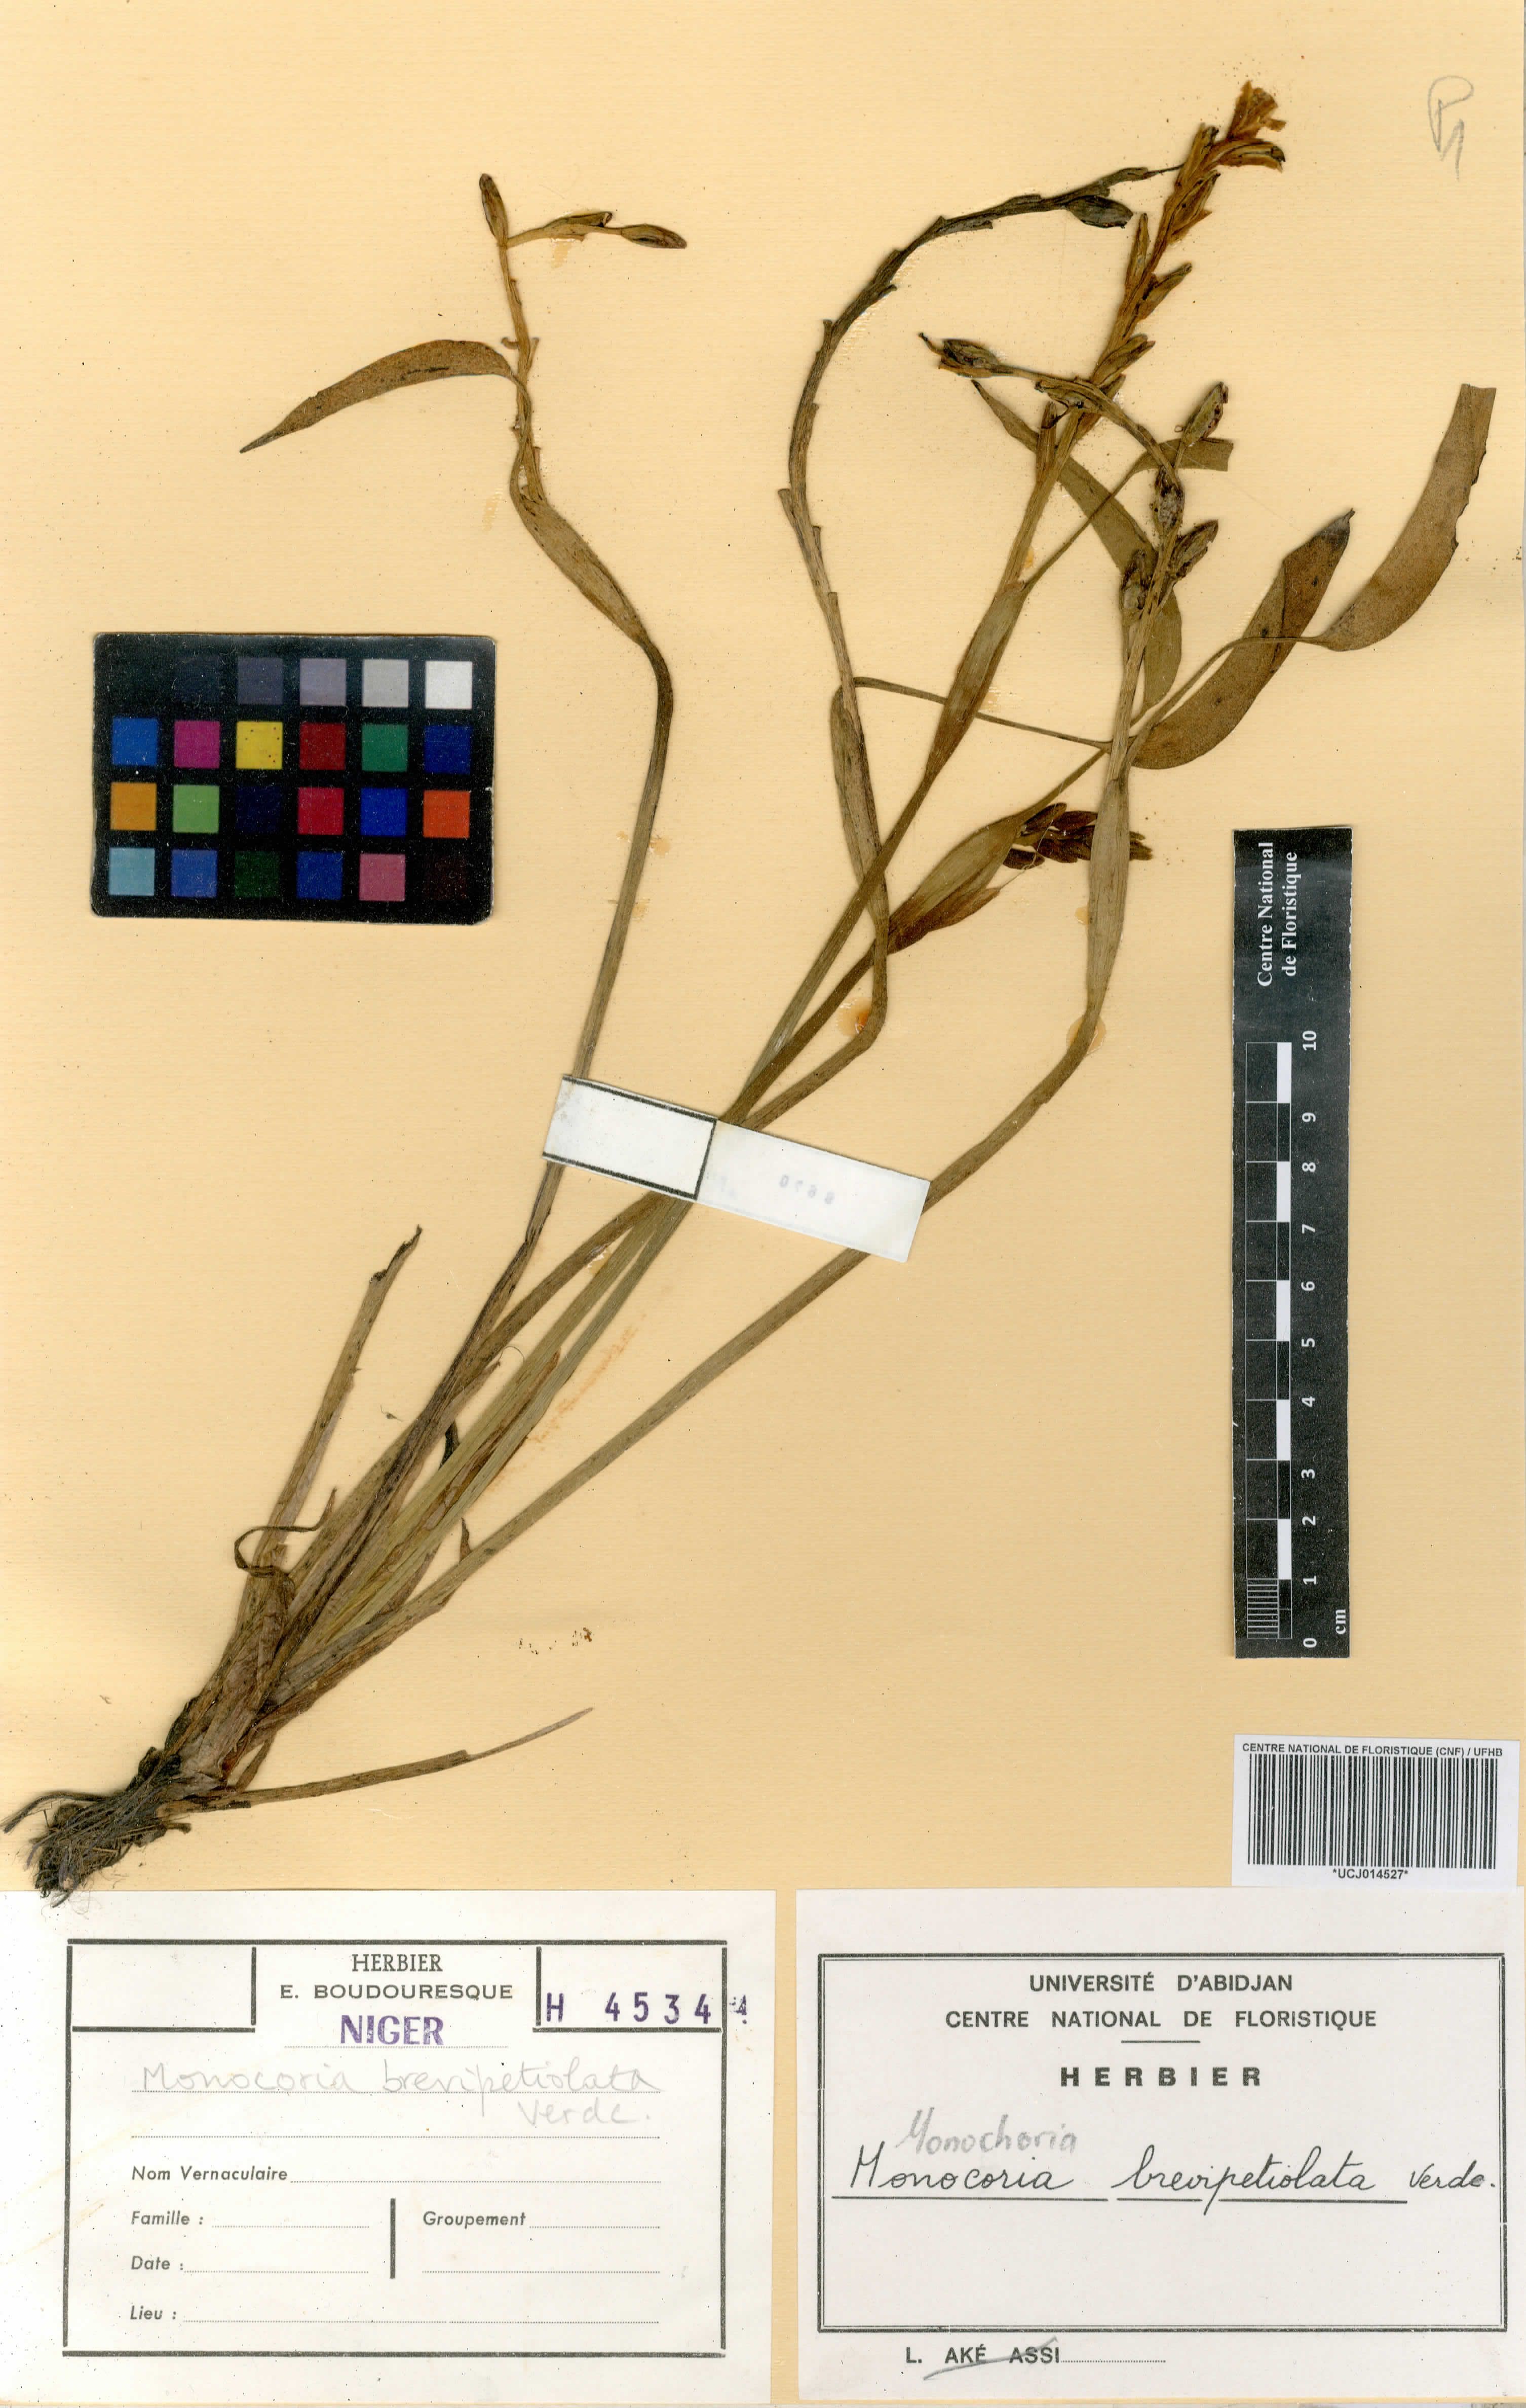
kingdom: Plantae
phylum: Tracheophyta
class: Liliopsida
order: Commelinales
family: Pontederiaceae
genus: Pontederia
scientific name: Pontederia brevipetiolata
